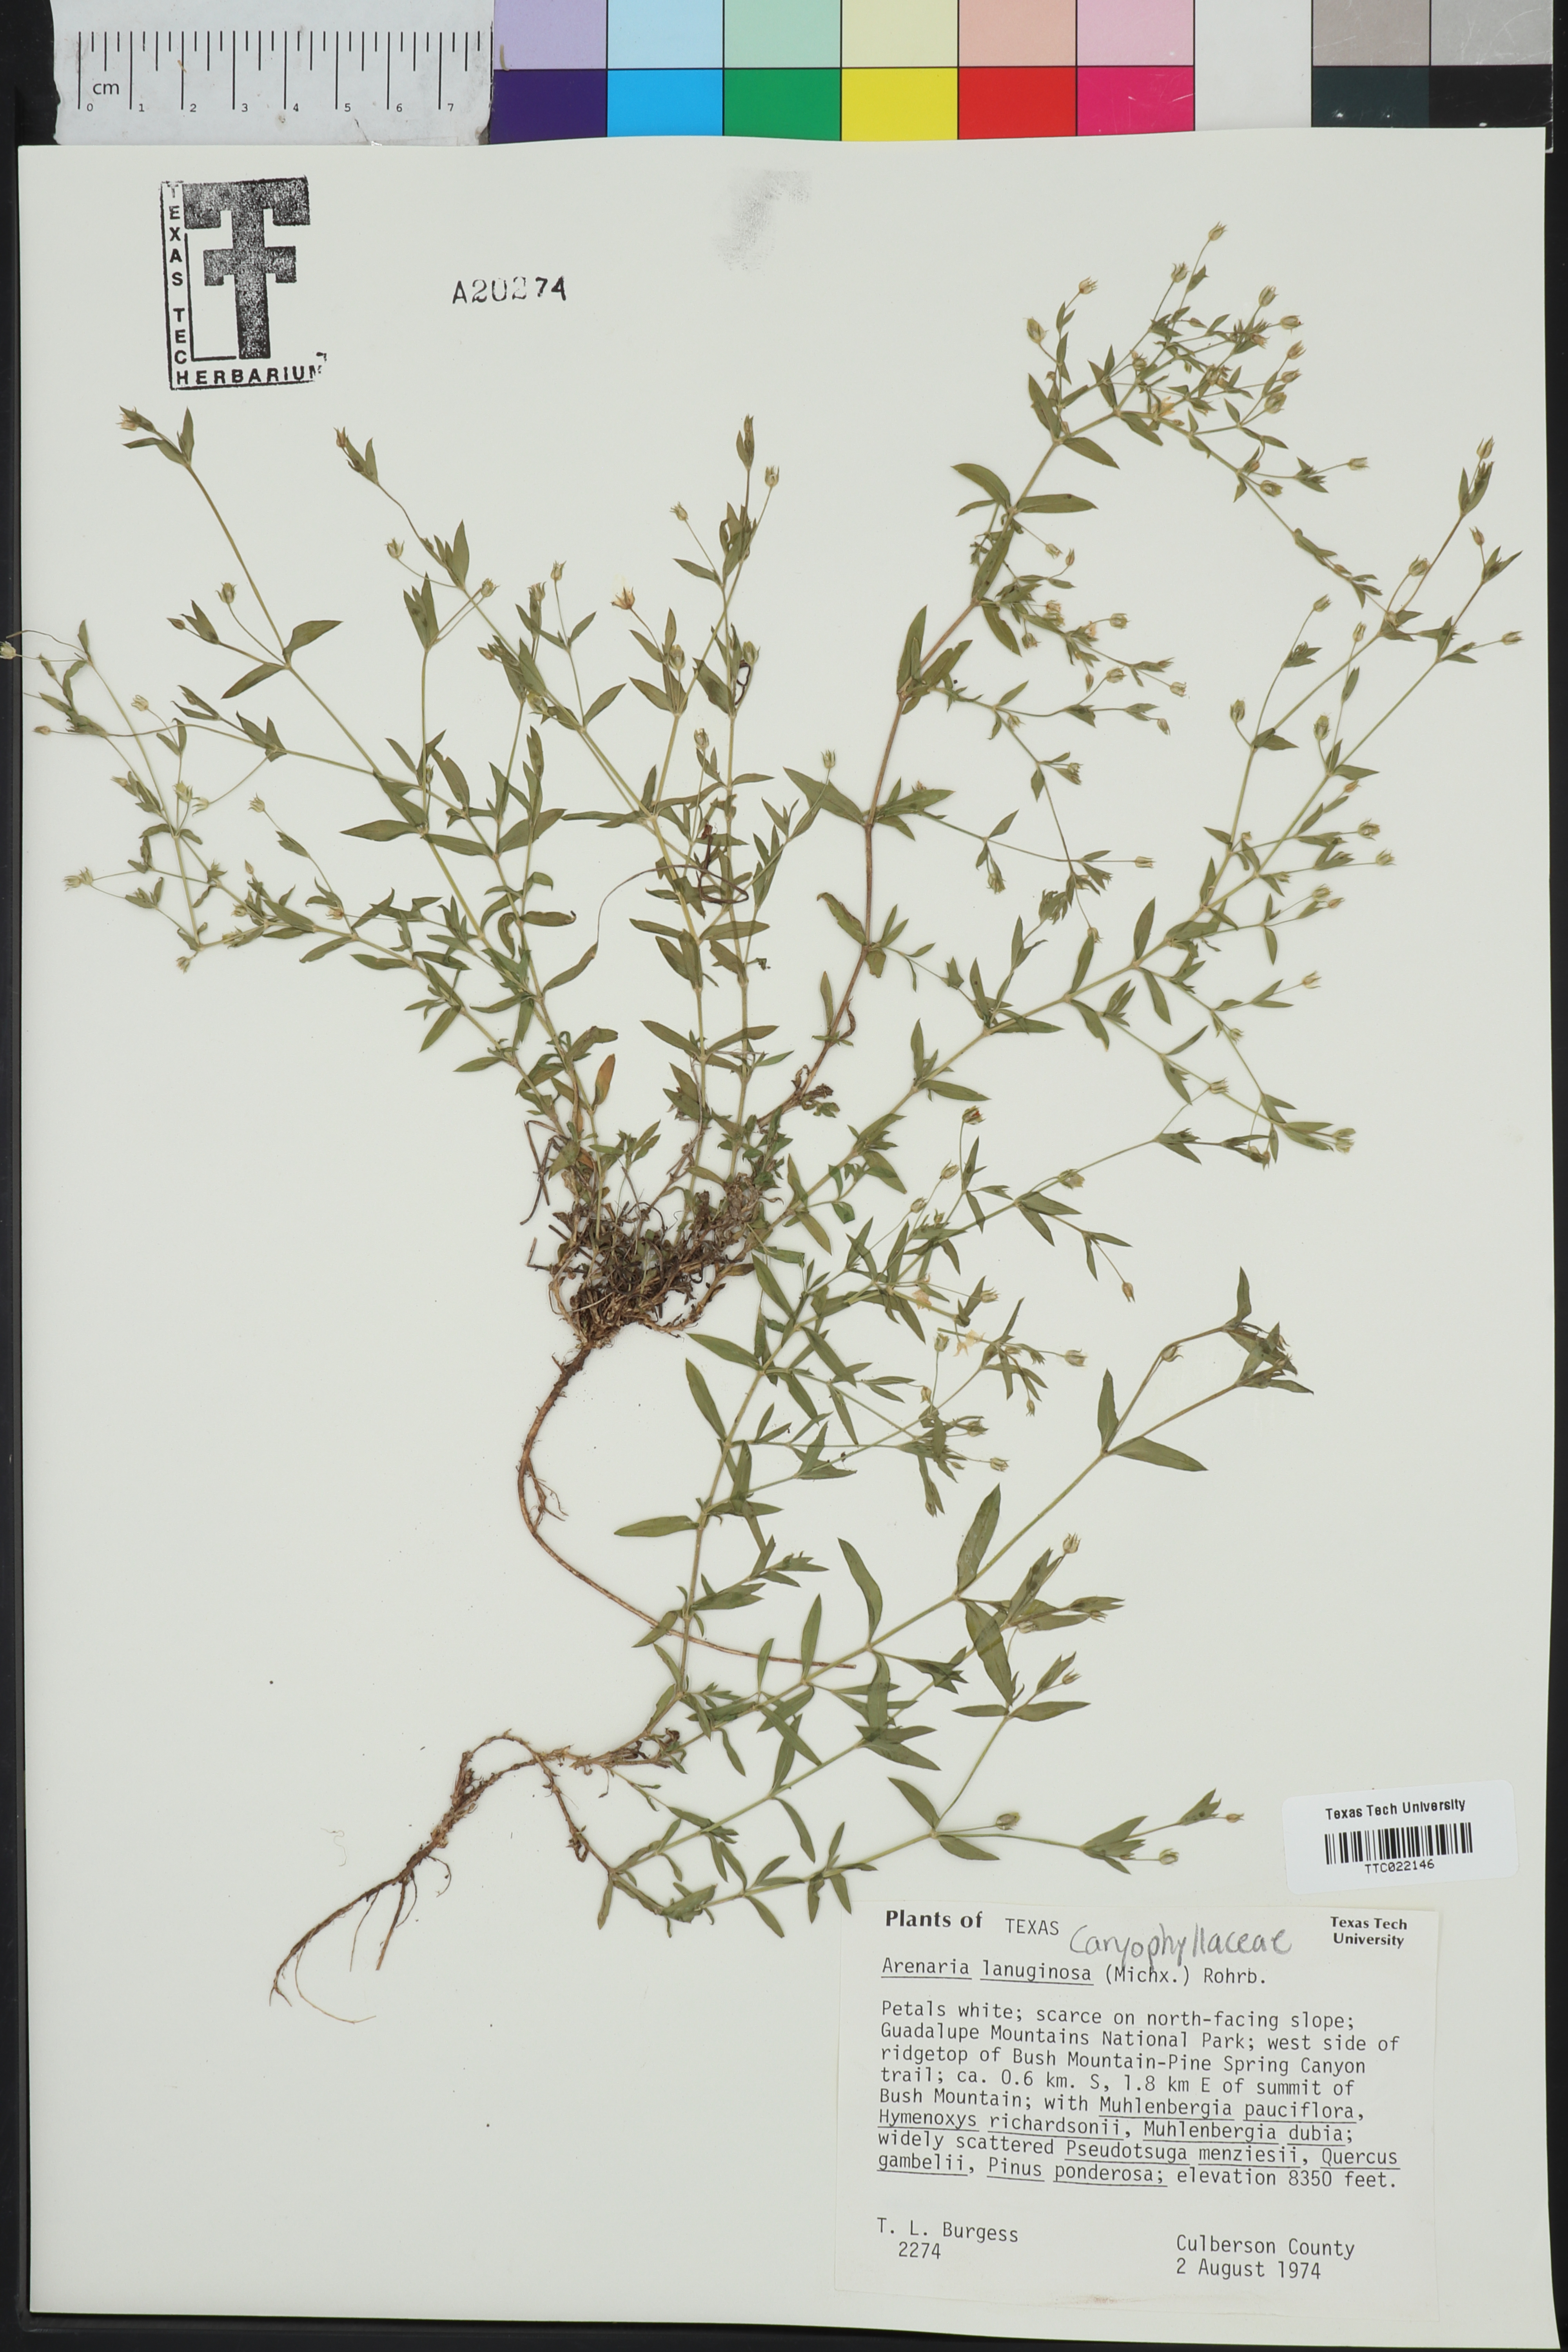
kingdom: Plantae
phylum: Tracheophyta
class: Magnoliopsida
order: Caryophyllales
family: Caryophyllaceae
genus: Arenaria
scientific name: Arenaria lanuginosa
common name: Spread sandwort
